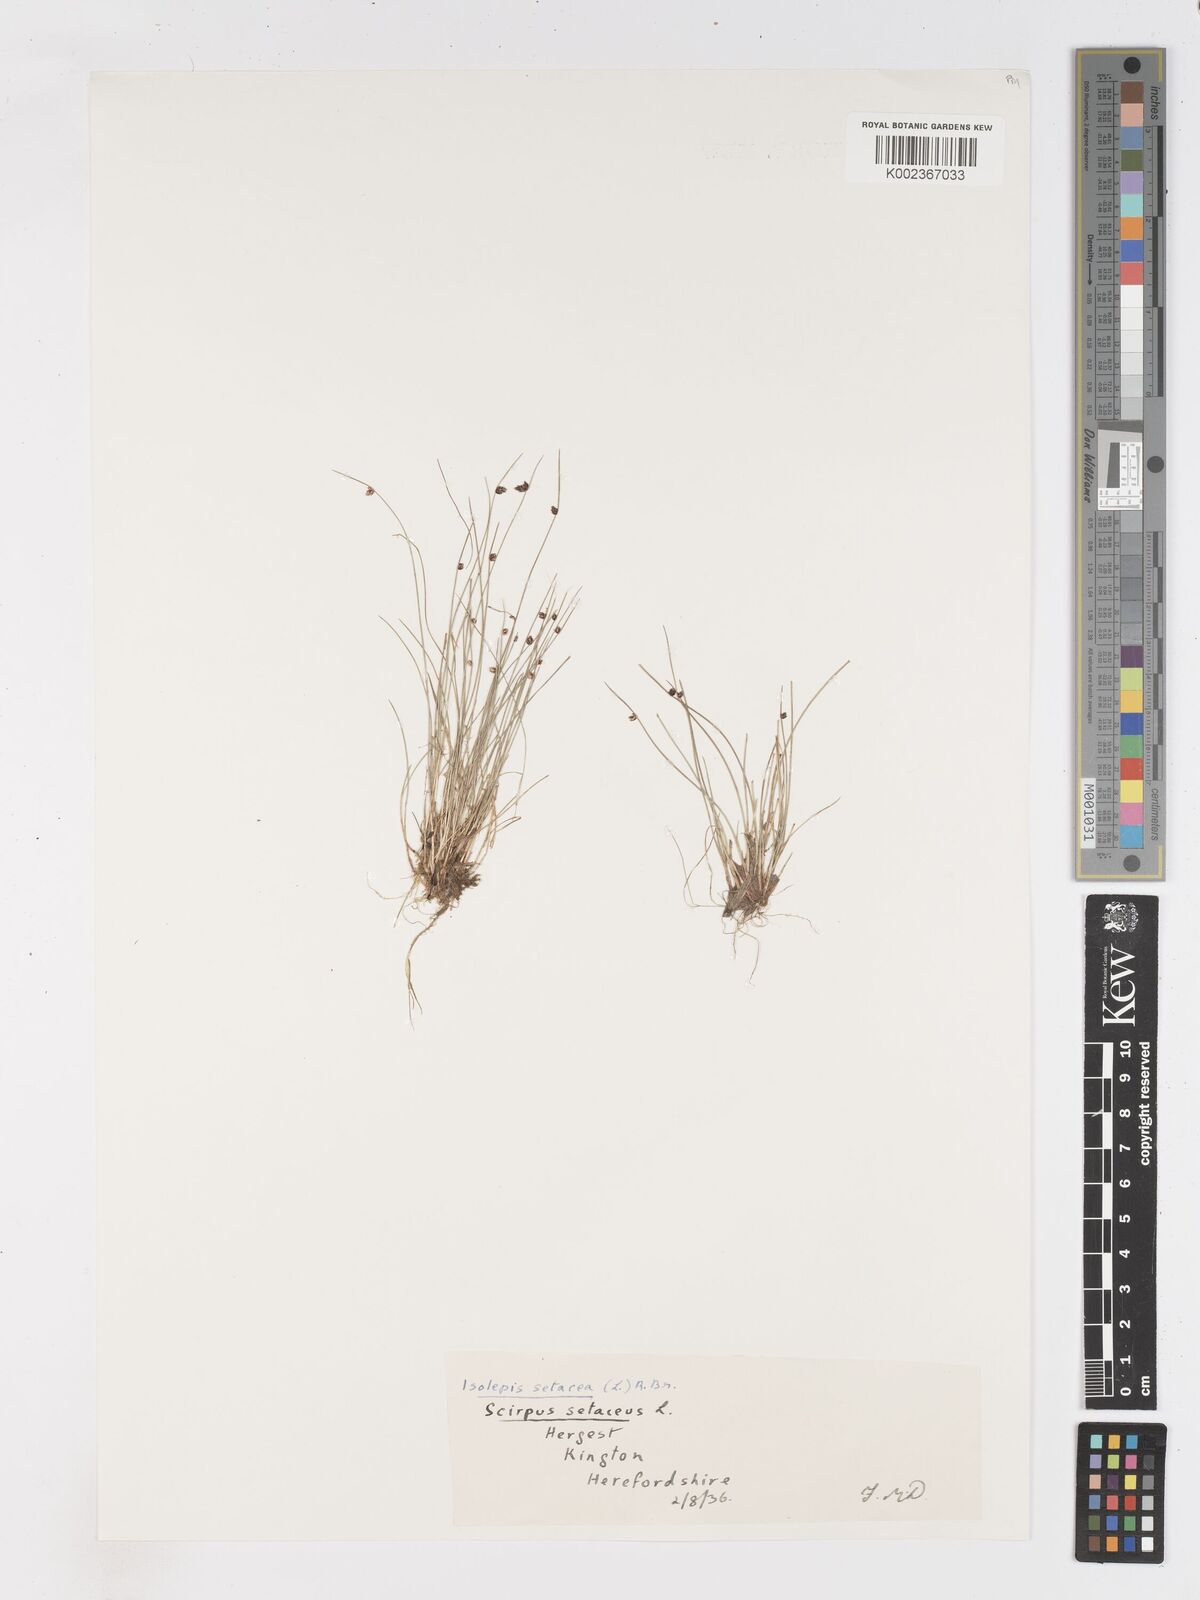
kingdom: Plantae
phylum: Tracheophyta
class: Liliopsida
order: Poales
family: Cyperaceae
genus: Isolepis
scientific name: Isolepis setacea
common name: Bristle club-rush
